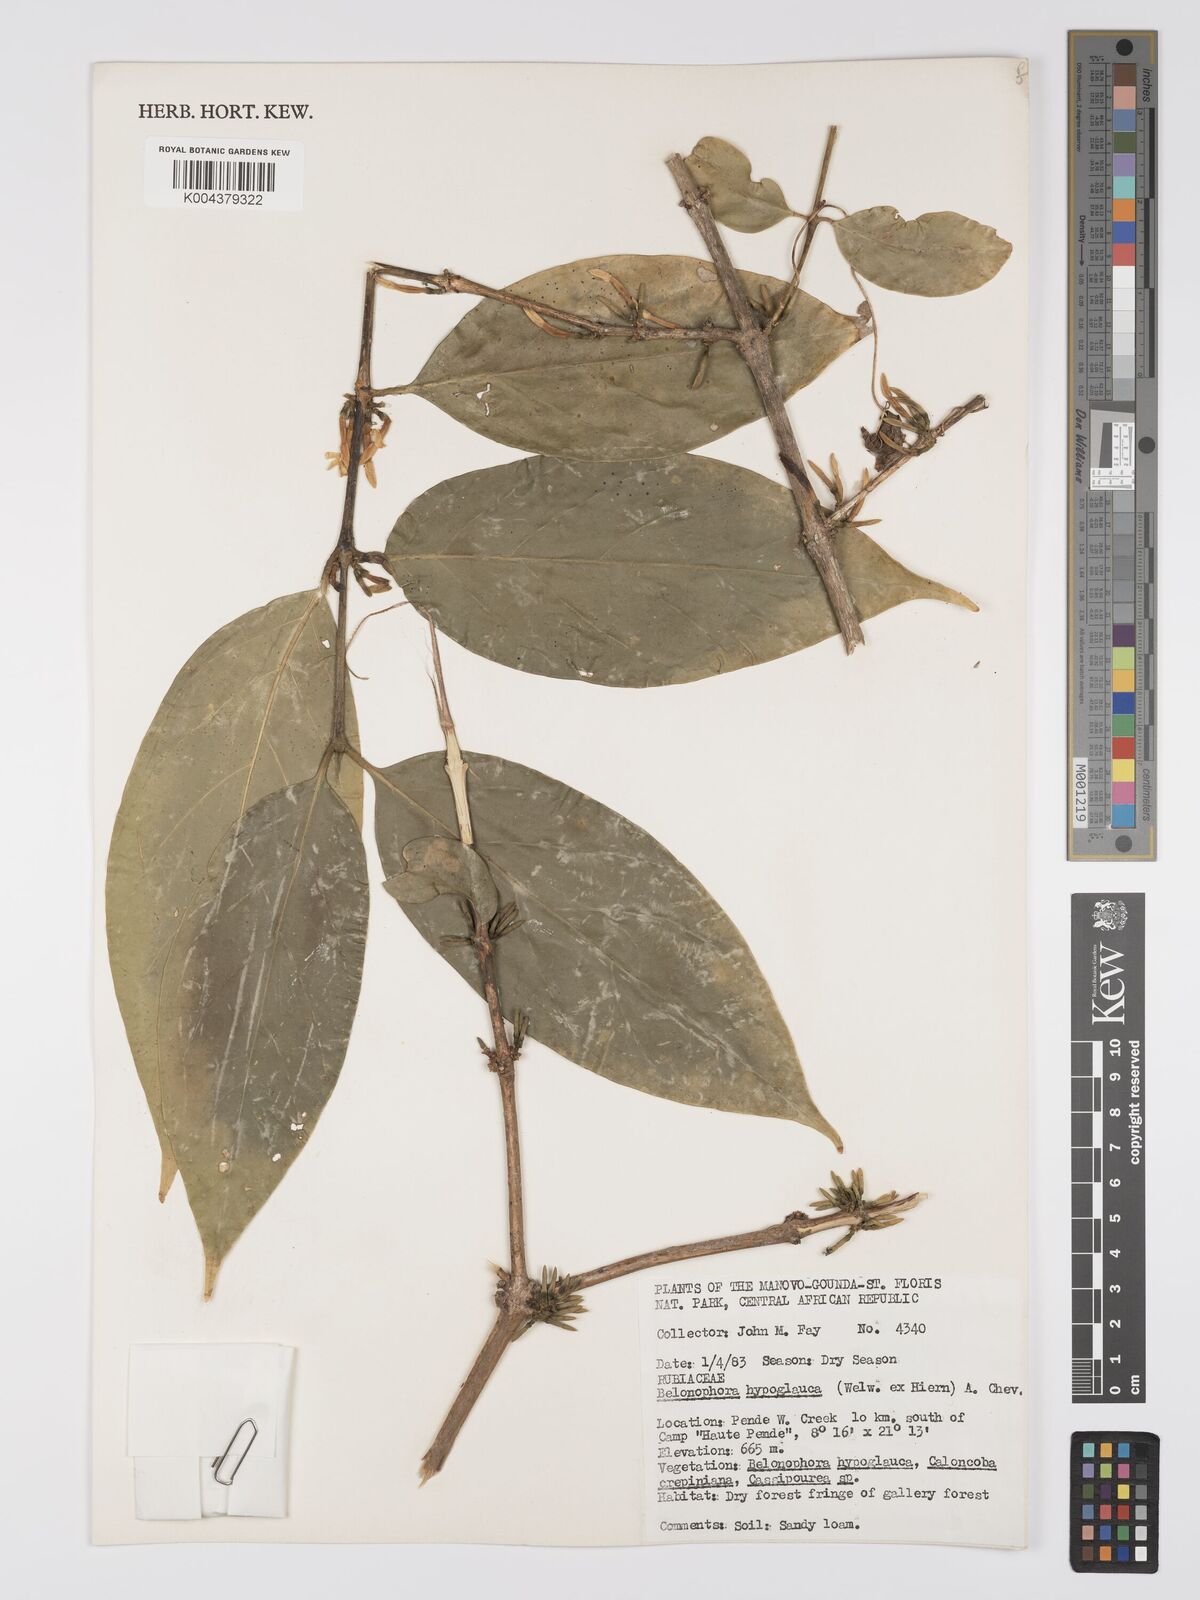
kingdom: Plantae
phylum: Tracheophyta
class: Magnoliopsida
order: Gentianales
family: Rubiaceae
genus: Belonophora
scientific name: Belonophora coffeoides
